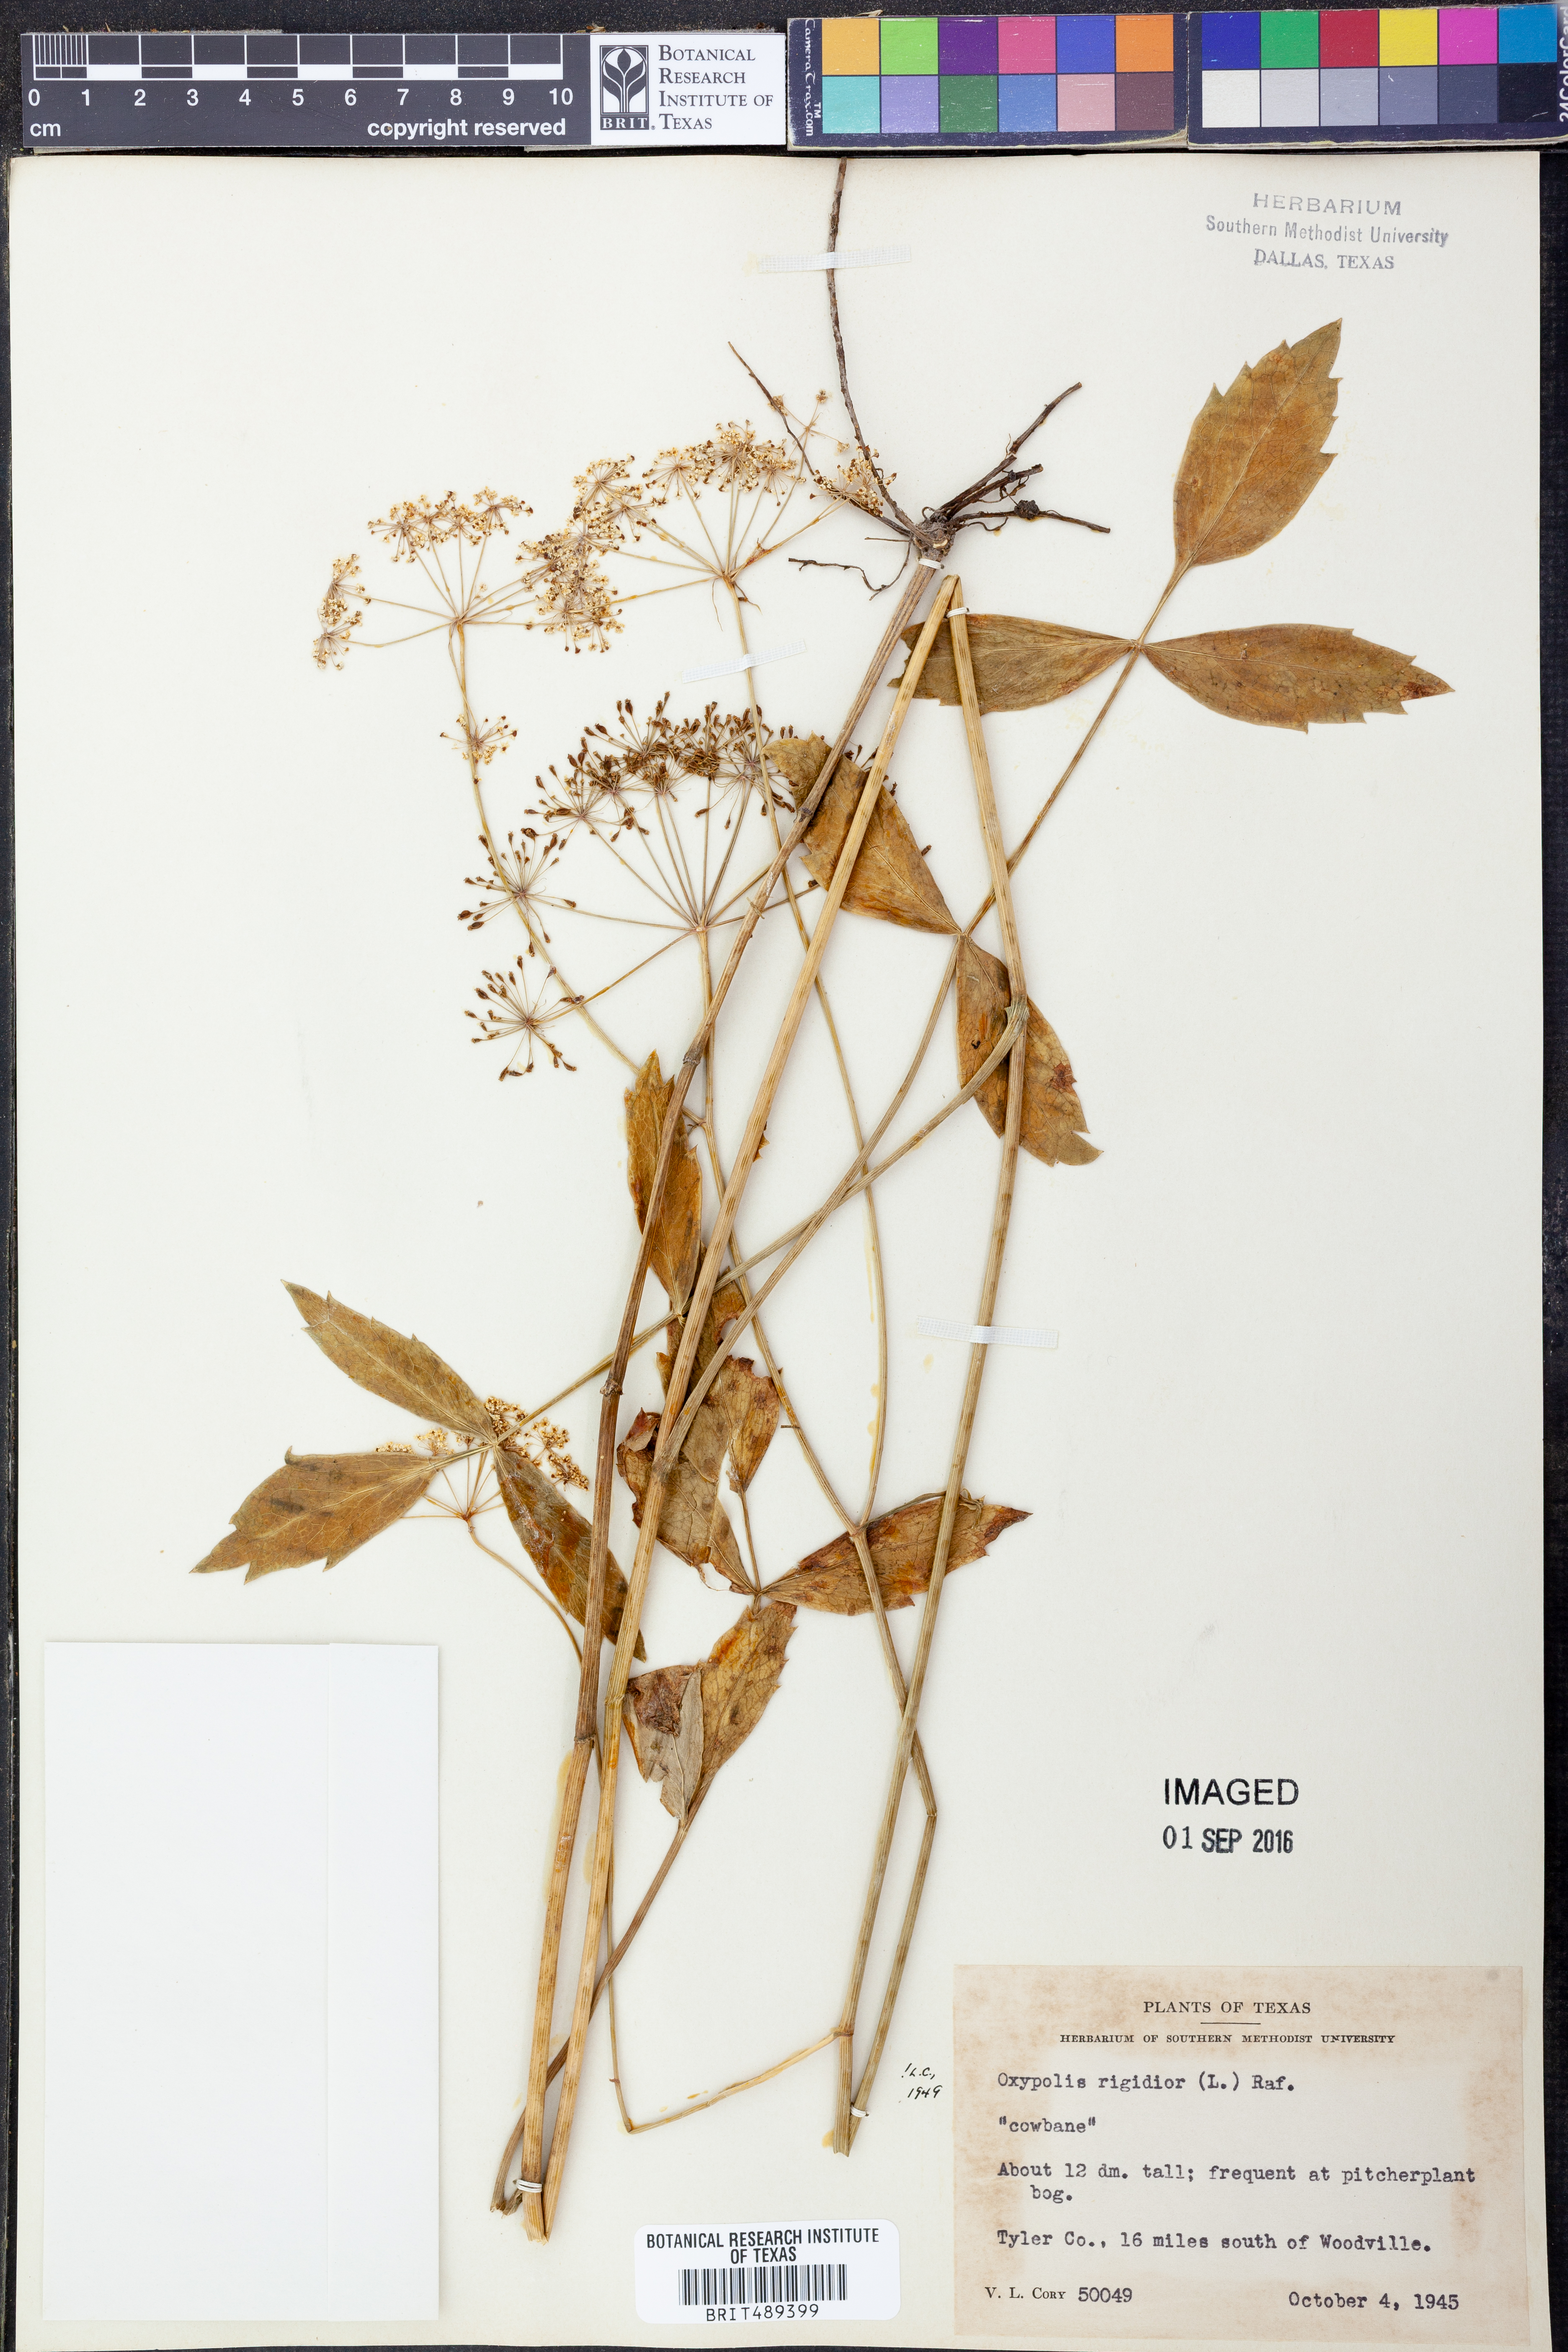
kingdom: Plantae
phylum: Tracheophyta
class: Magnoliopsida
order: Apiales
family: Apiaceae
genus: Oxypolis
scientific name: Oxypolis rigidior
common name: Cowbane
